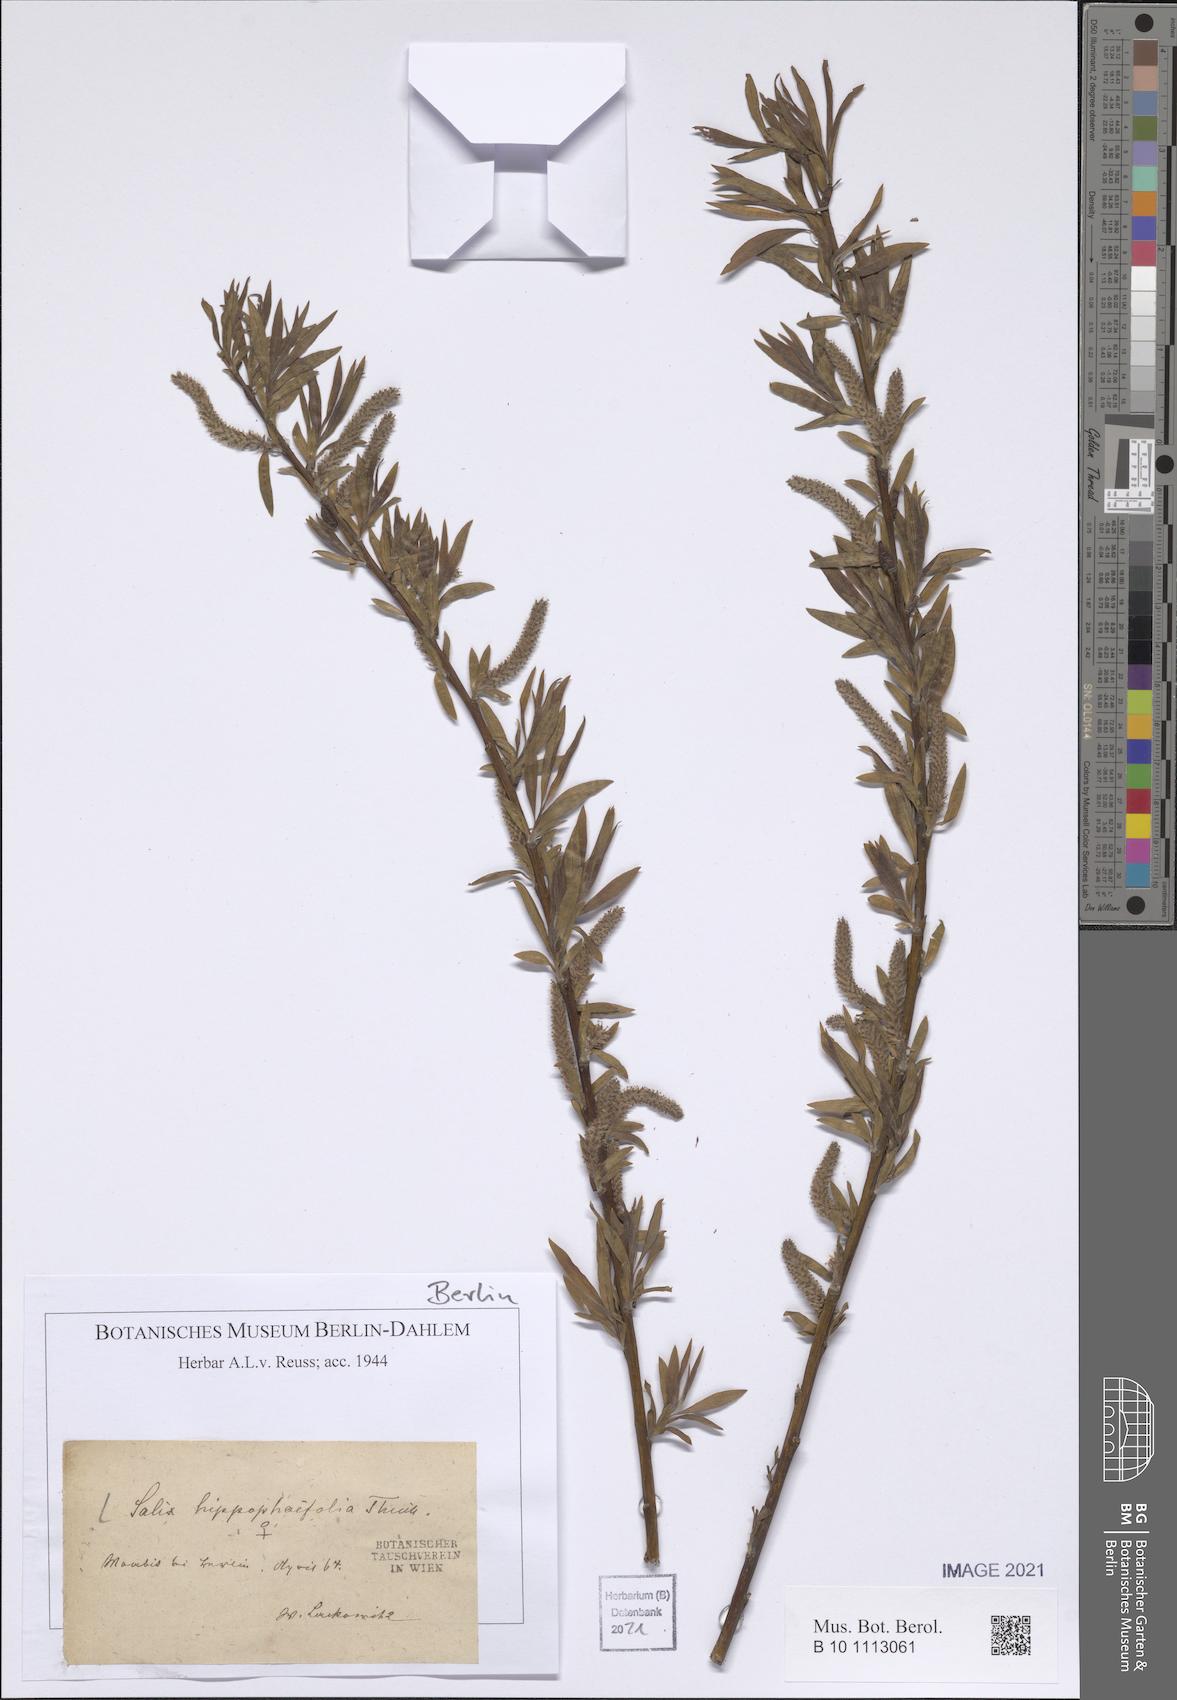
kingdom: Plantae
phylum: Tracheophyta
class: Magnoliopsida
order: Malpighiales
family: Salicaceae
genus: Salix
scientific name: Salix mollissima
